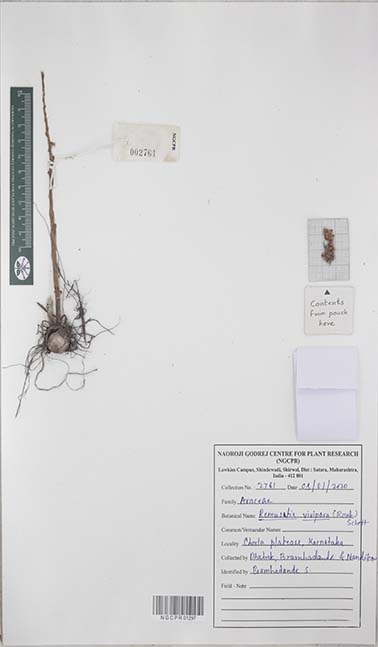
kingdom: Plantae
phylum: Tracheophyta
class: Liliopsida
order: Alismatales
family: Araceae
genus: Remusatia
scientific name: Remusatia vivipara
